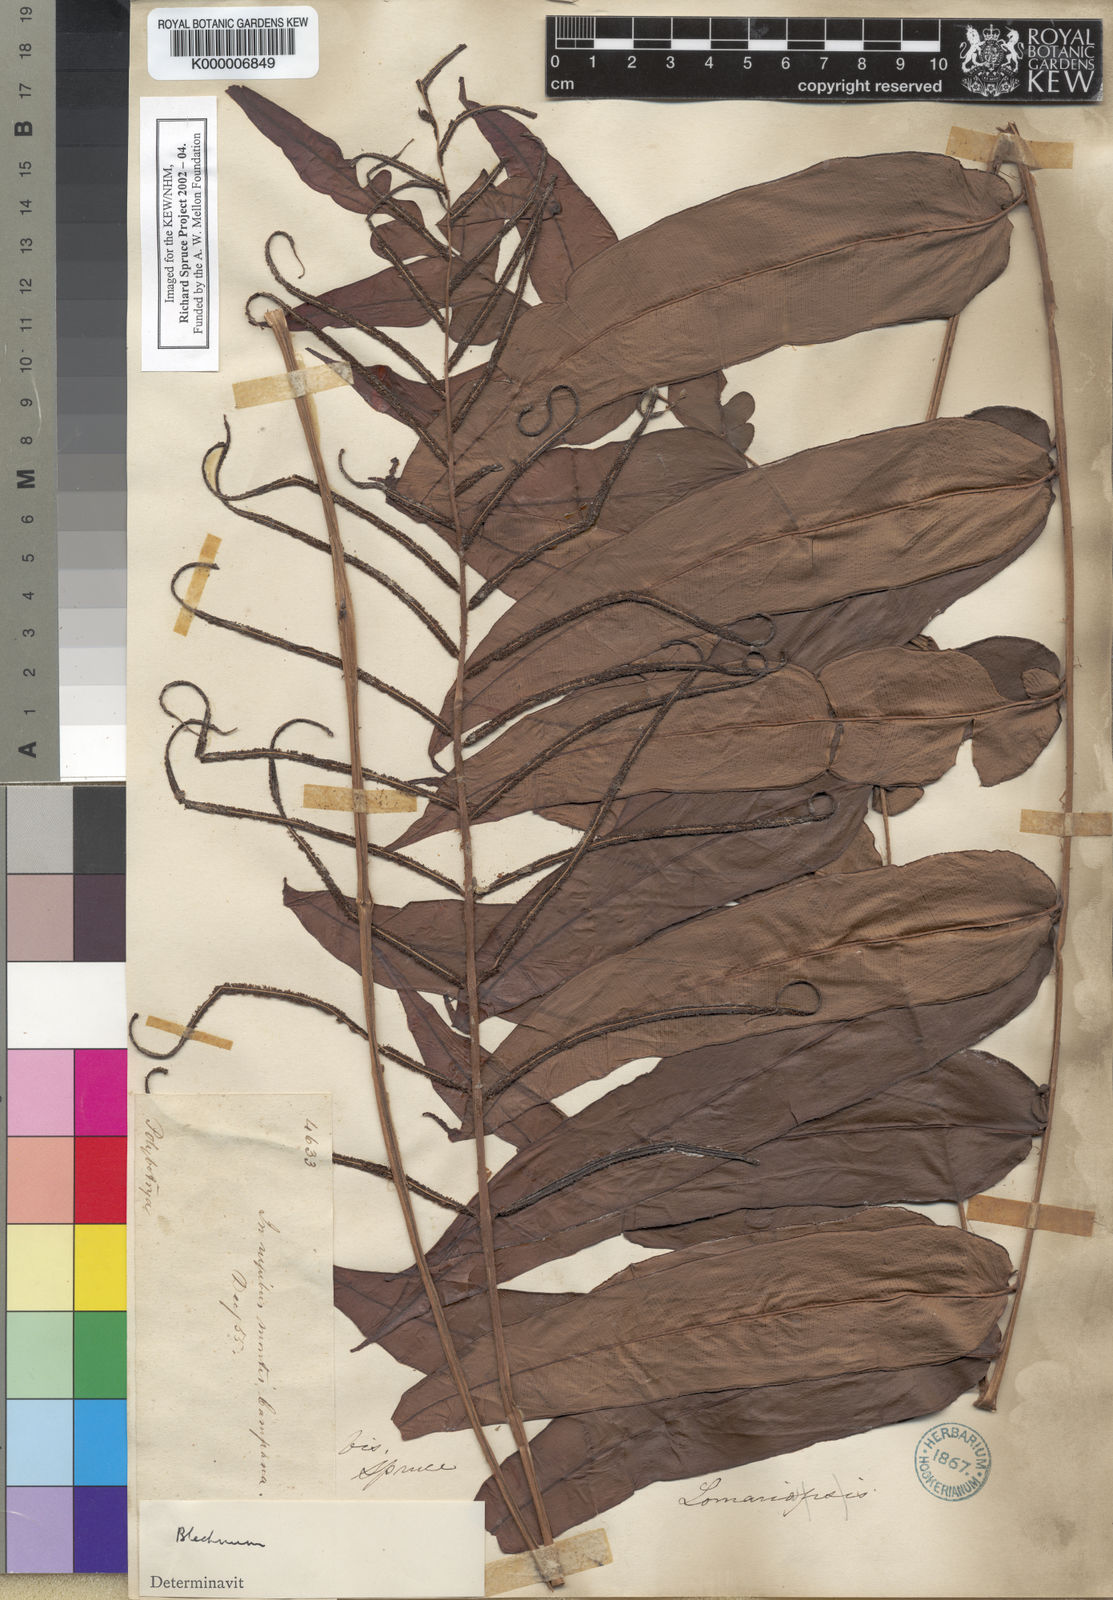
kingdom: Plantae
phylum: Tracheophyta
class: Polypodiopsida
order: Polypodiales
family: Blechnaceae
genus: Blechnum
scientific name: Blechnum
